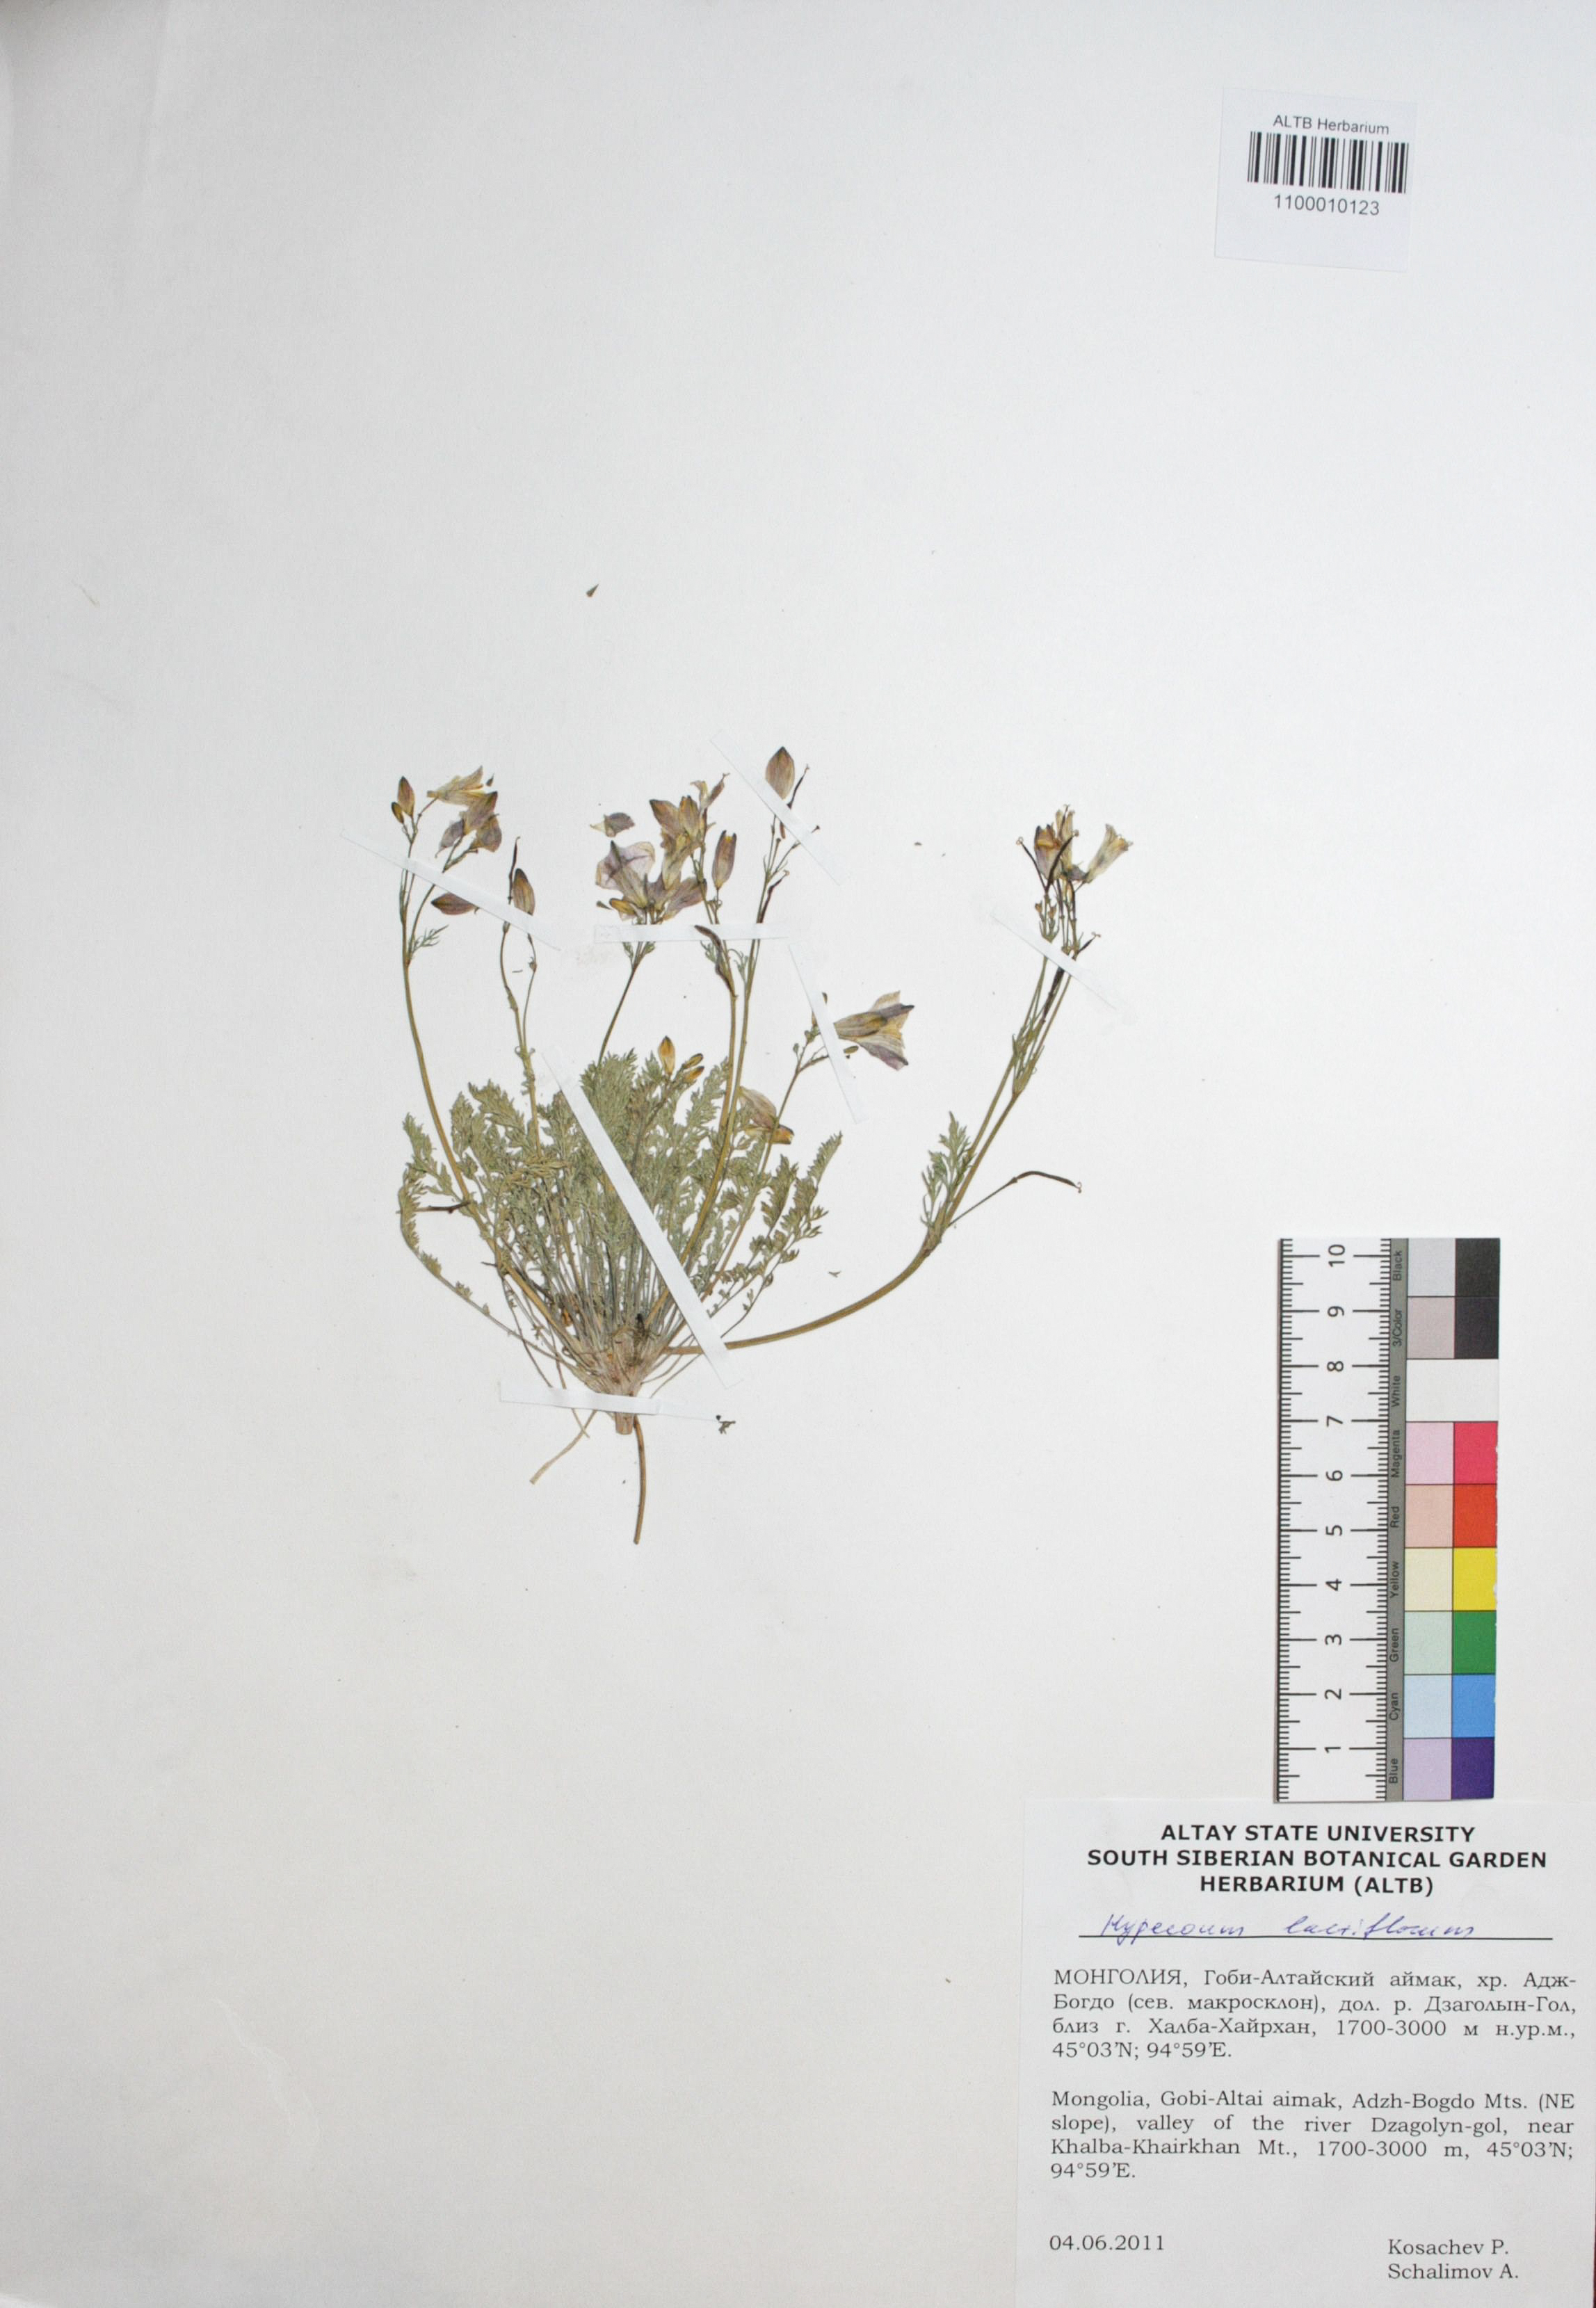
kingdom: Plantae
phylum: Tracheophyta
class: Magnoliopsida
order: Ranunculales
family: Papaveraceae
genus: Hypecoum
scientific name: Hypecoum lactiflorum
